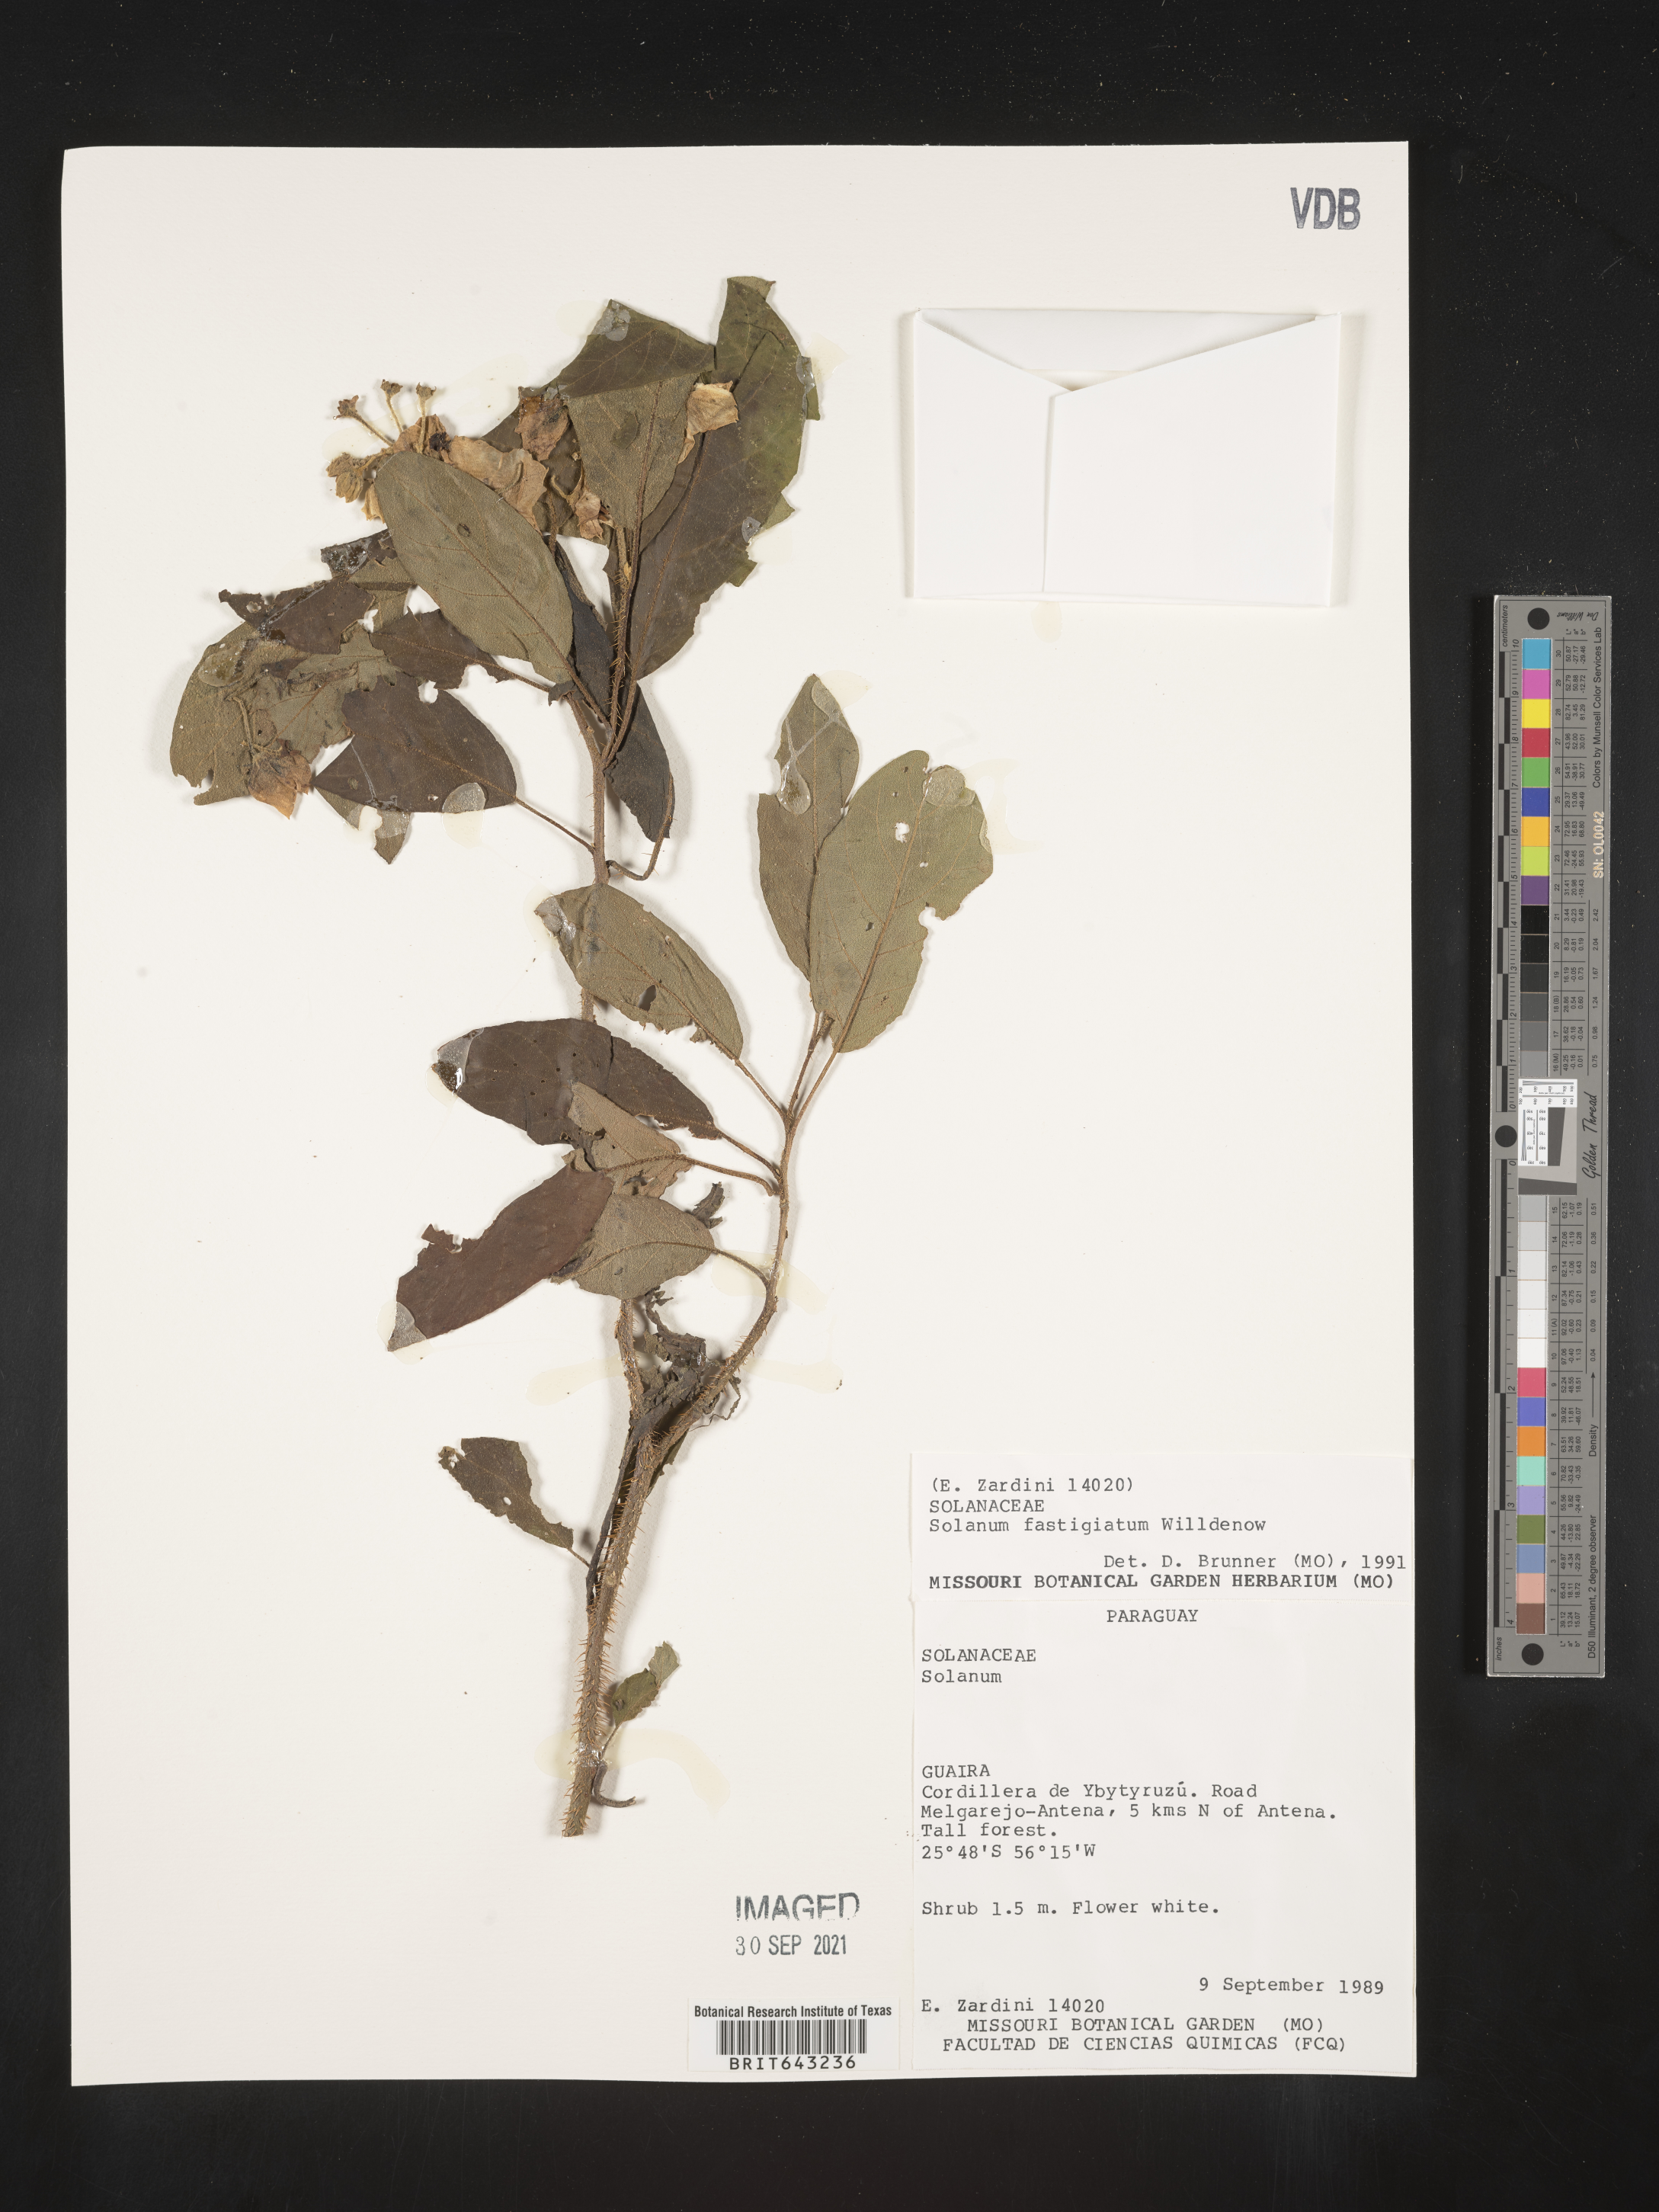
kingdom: Plantae
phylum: Tracheophyta
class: Magnoliopsida
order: Solanales
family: Solanaceae
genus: Solanum
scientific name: Solanum
